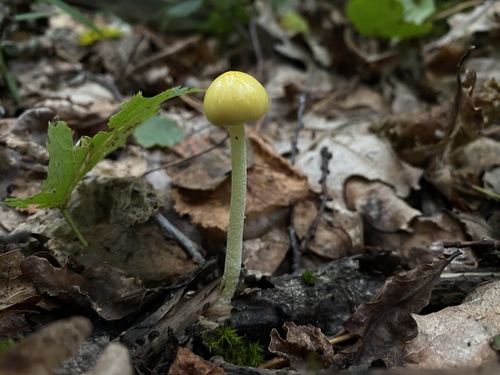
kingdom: Fungi
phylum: Basidiomycota
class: Agaricomycetes
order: Agaricales
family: Bolbitiaceae
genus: Bolbitius
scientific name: Bolbitius titubans
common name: Yellow fieldcap
